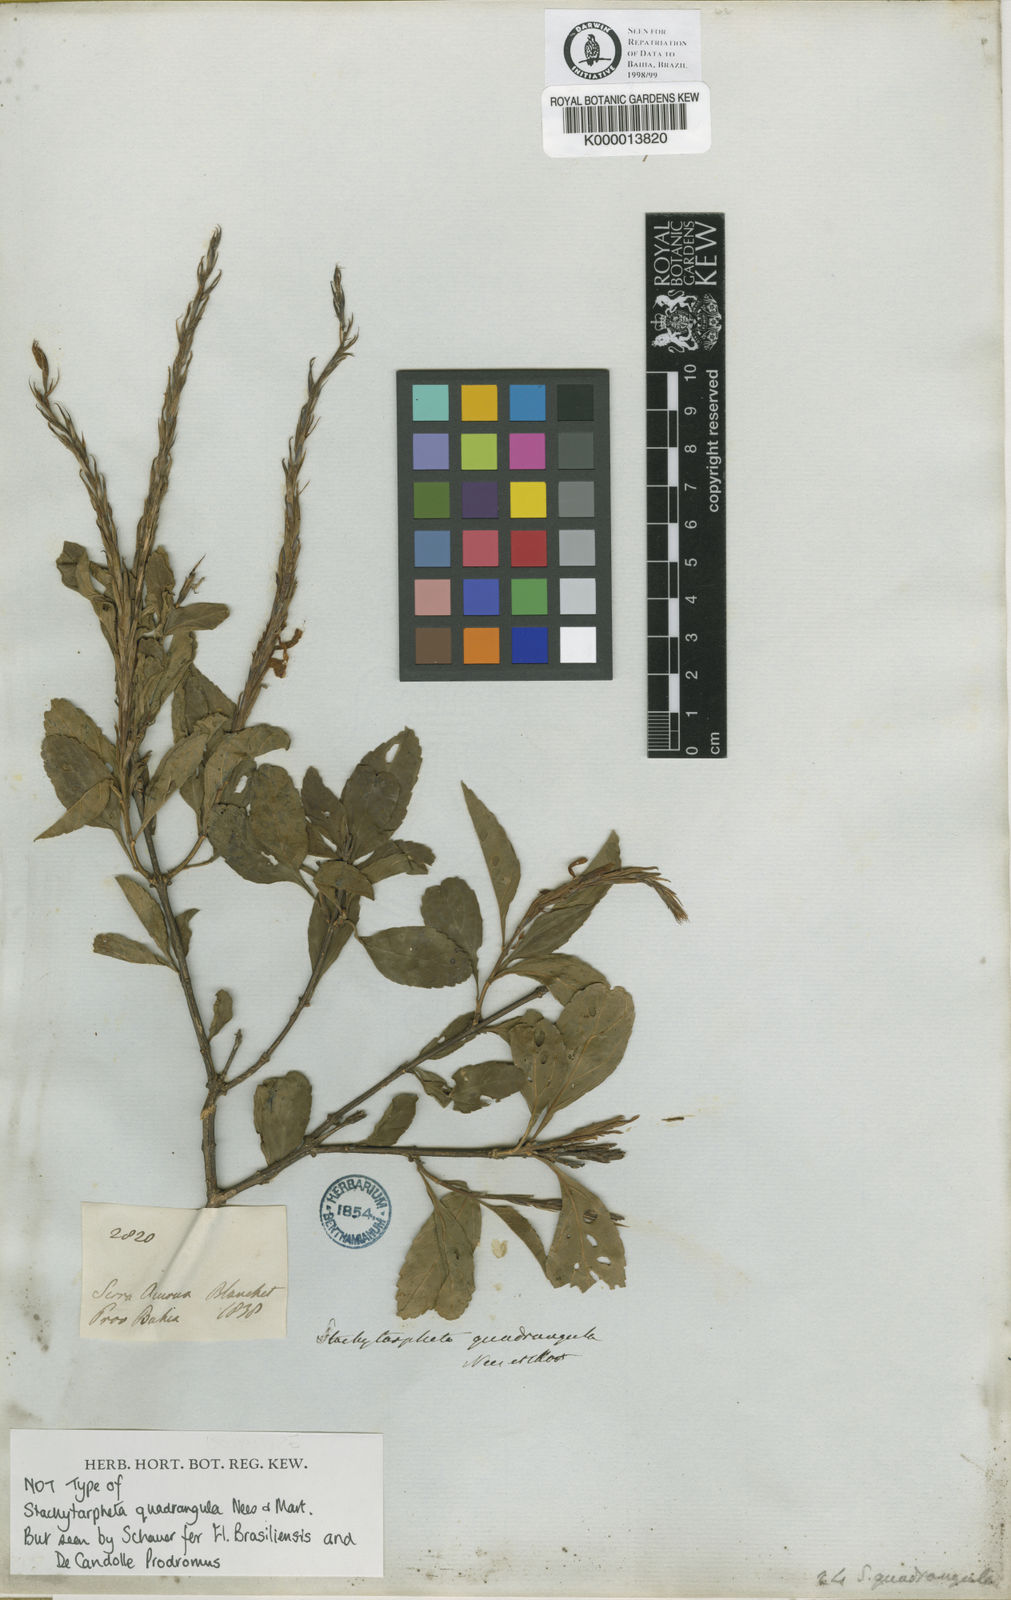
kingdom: Plantae
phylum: Tracheophyta
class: Magnoliopsida
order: Lamiales
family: Verbenaceae
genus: Stachytarpheta
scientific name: Stachytarpheta quadrangula
